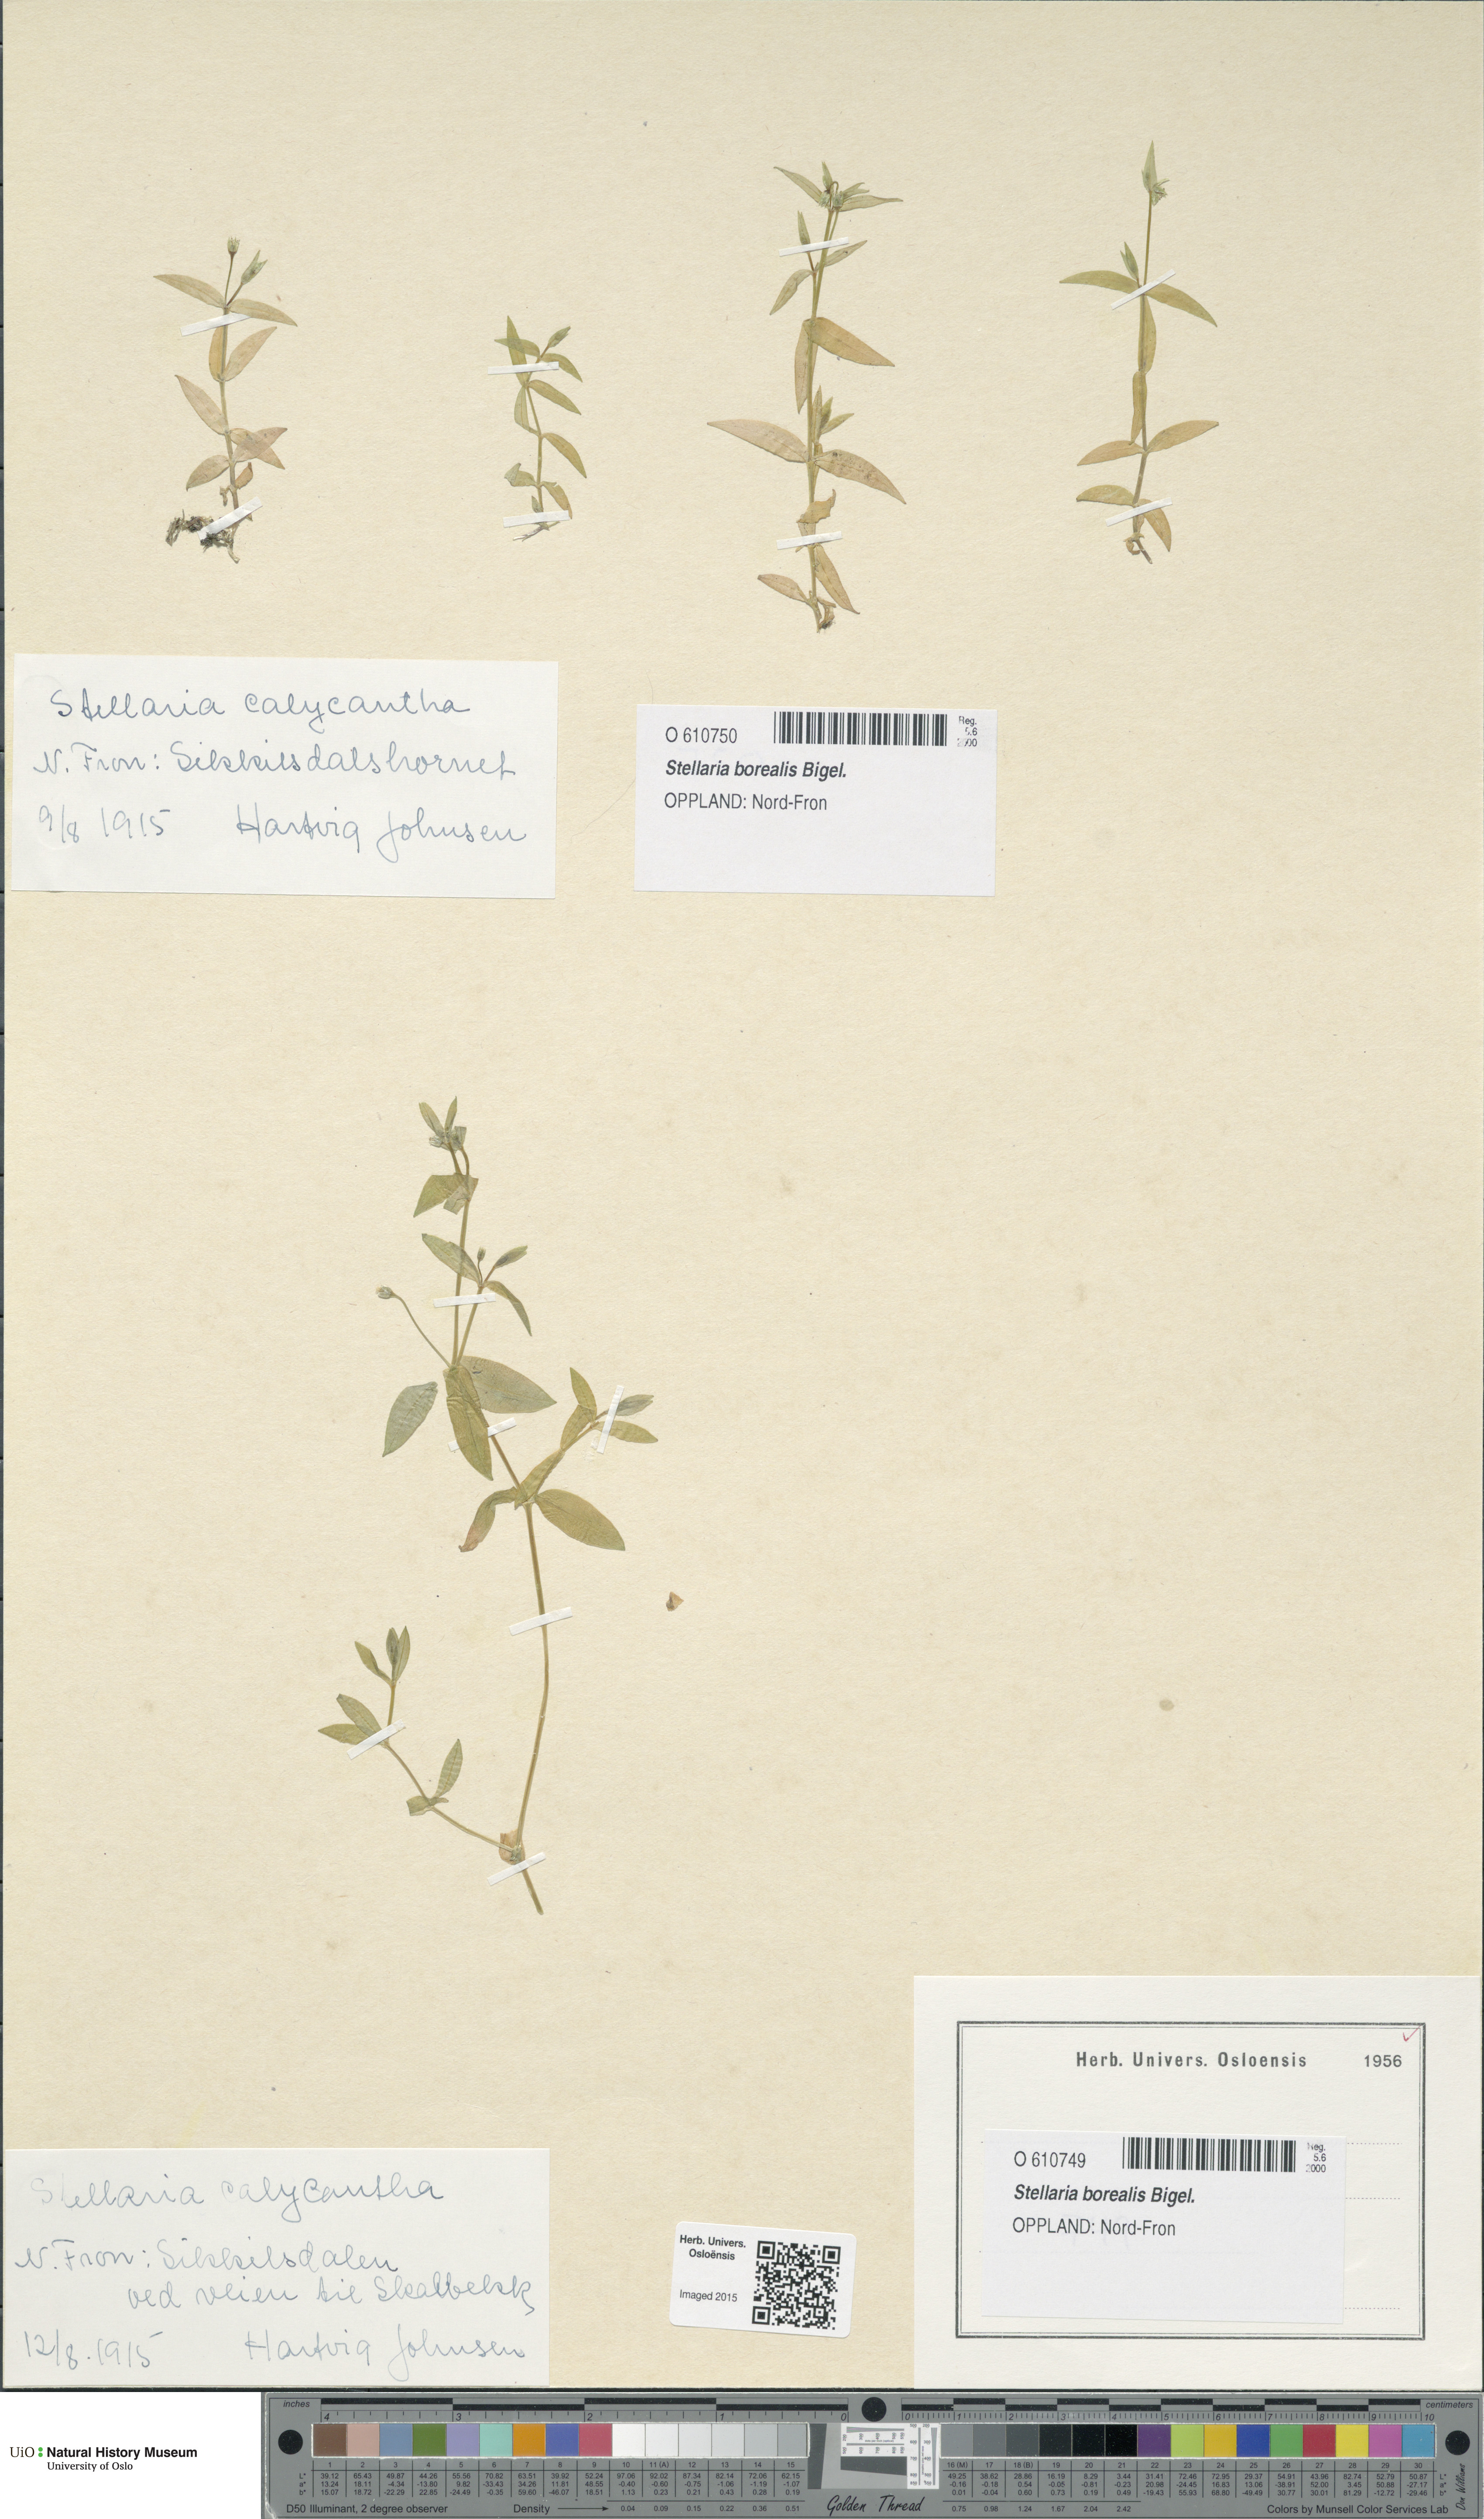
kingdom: Plantae
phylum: Tracheophyta
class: Magnoliopsida
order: Caryophyllales
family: Caryophyllaceae
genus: Stellaria
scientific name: Stellaria borealis
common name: Boreal starwort
